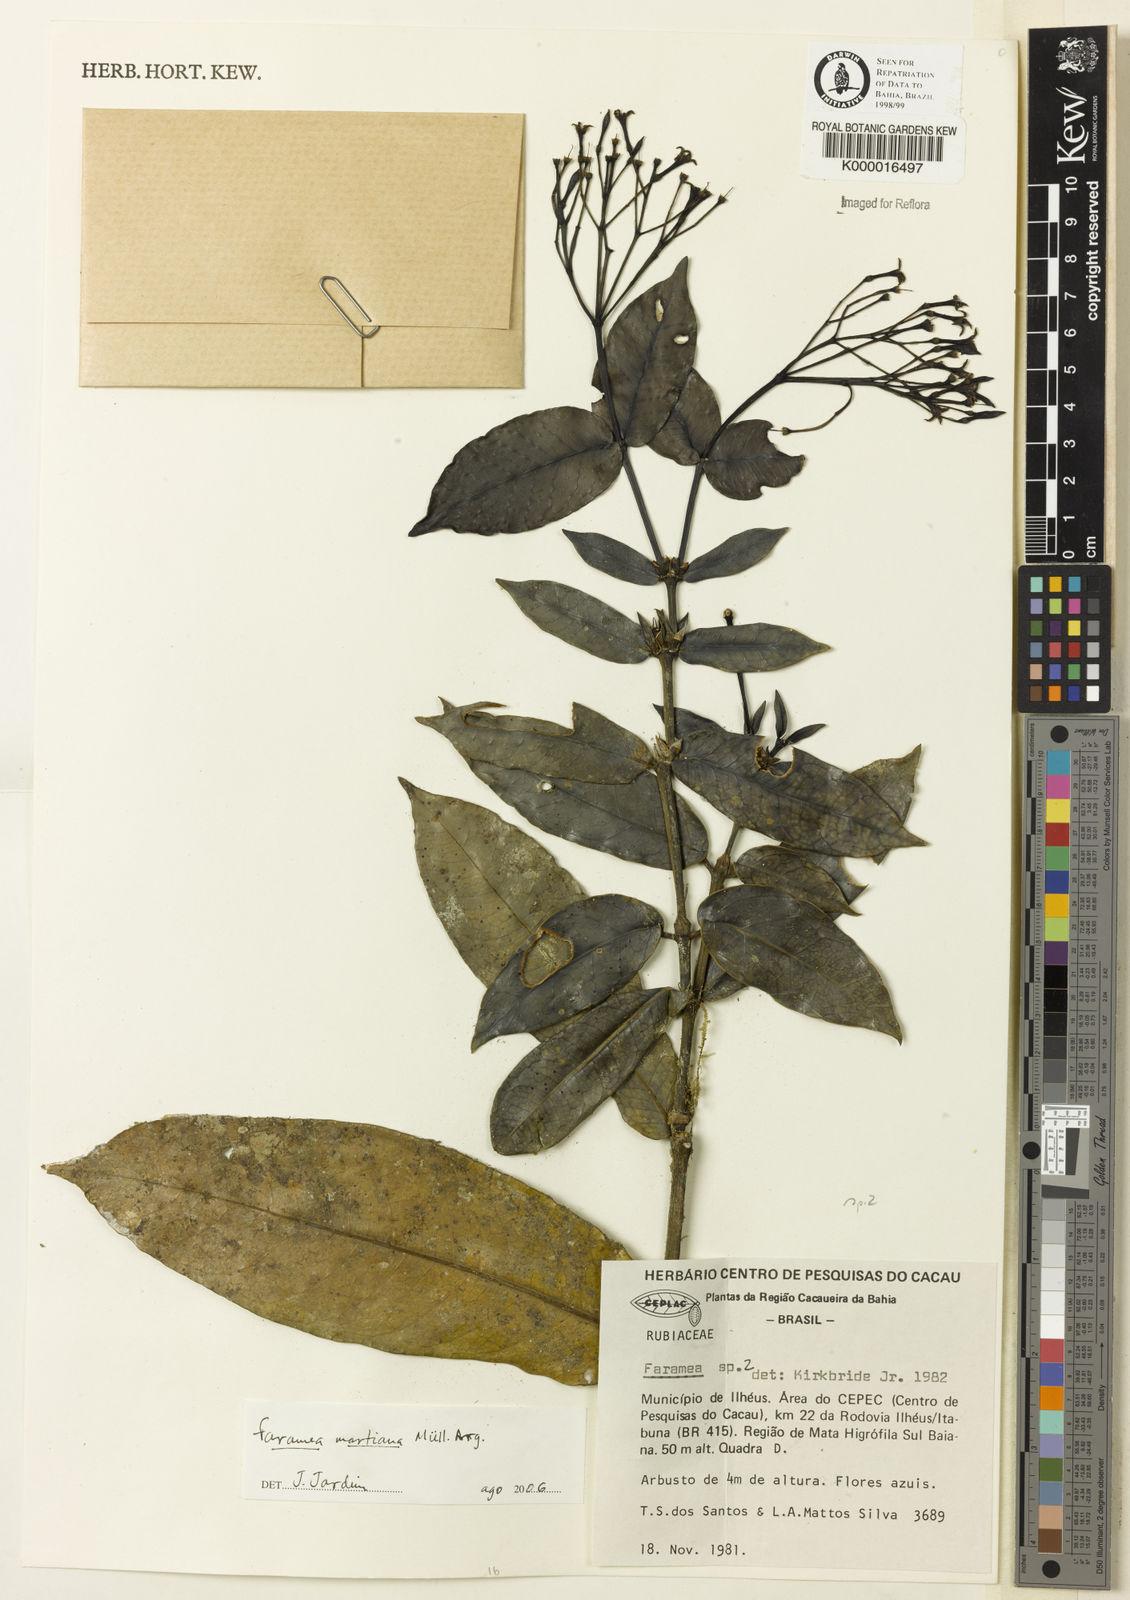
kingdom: Plantae
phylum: Tracheophyta
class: Magnoliopsida
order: Gentianales
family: Rubiaceae
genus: Faramea
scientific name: Faramea
